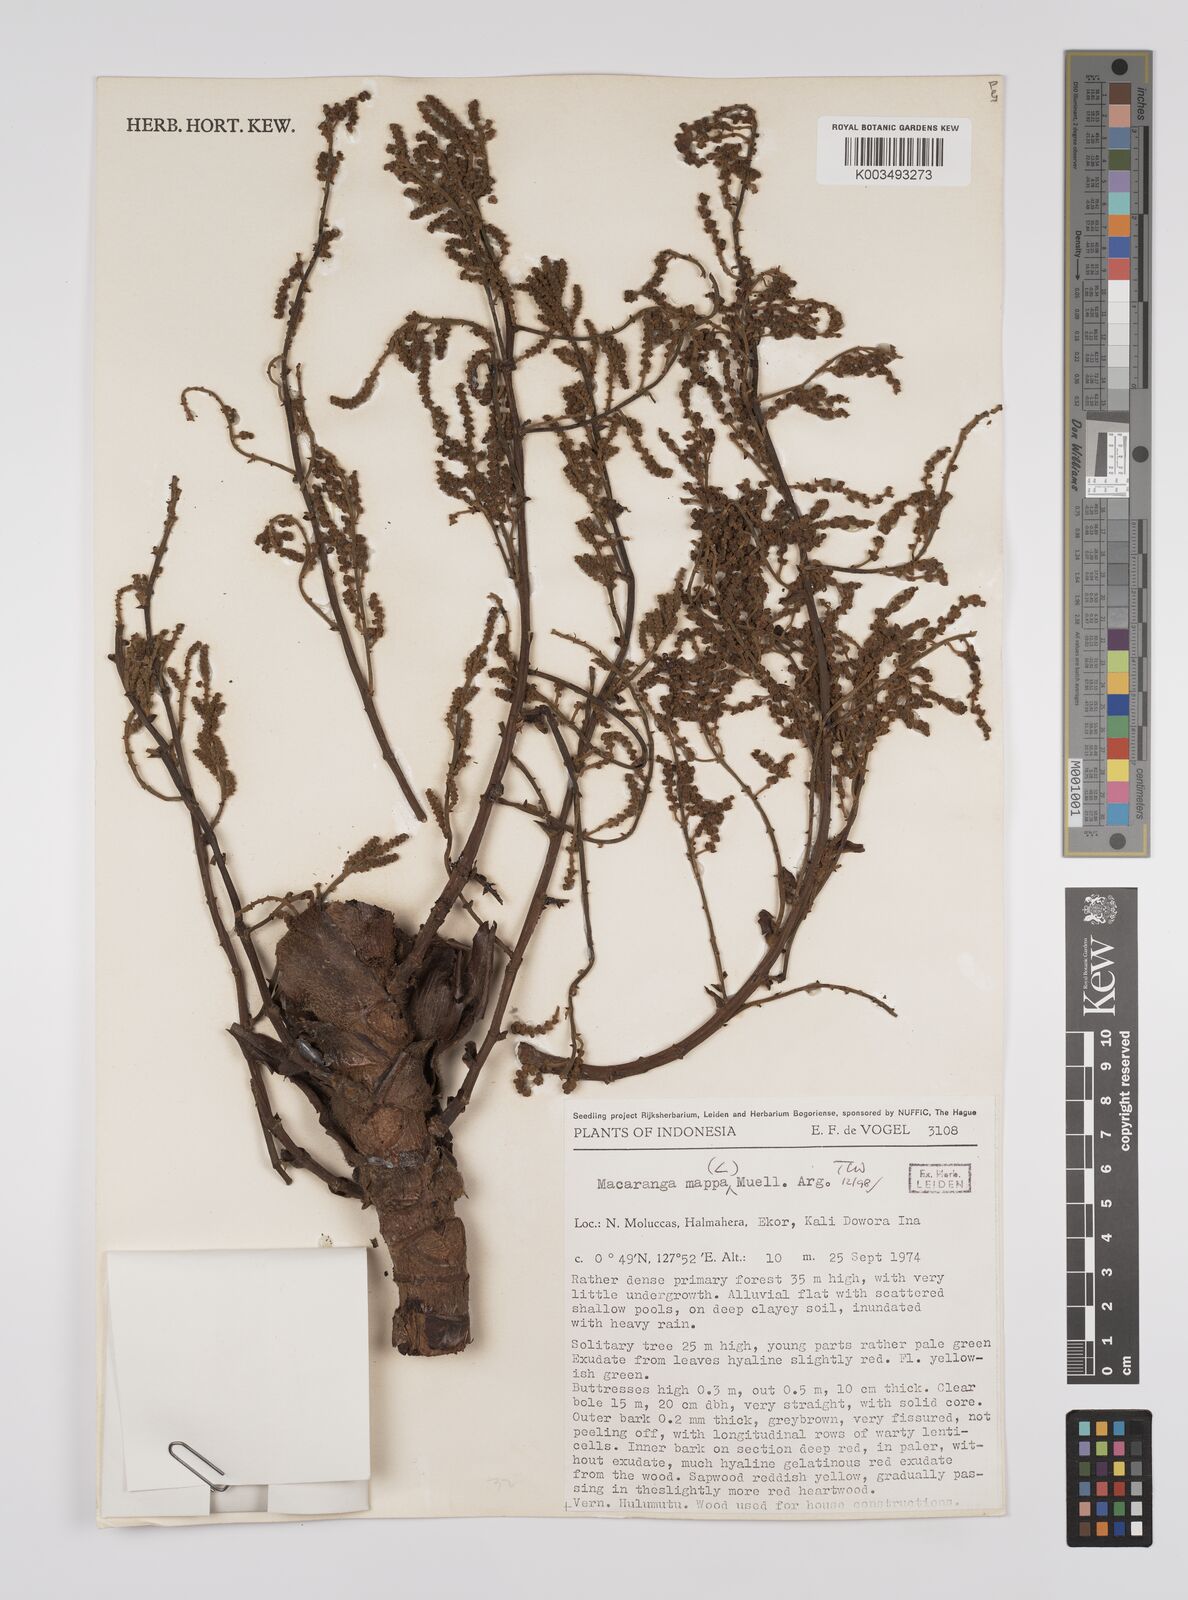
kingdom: Plantae
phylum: Tracheophyta
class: Magnoliopsida
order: Malpighiales
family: Euphorbiaceae
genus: Macaranga
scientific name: Macaranga mappa
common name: Pengua
